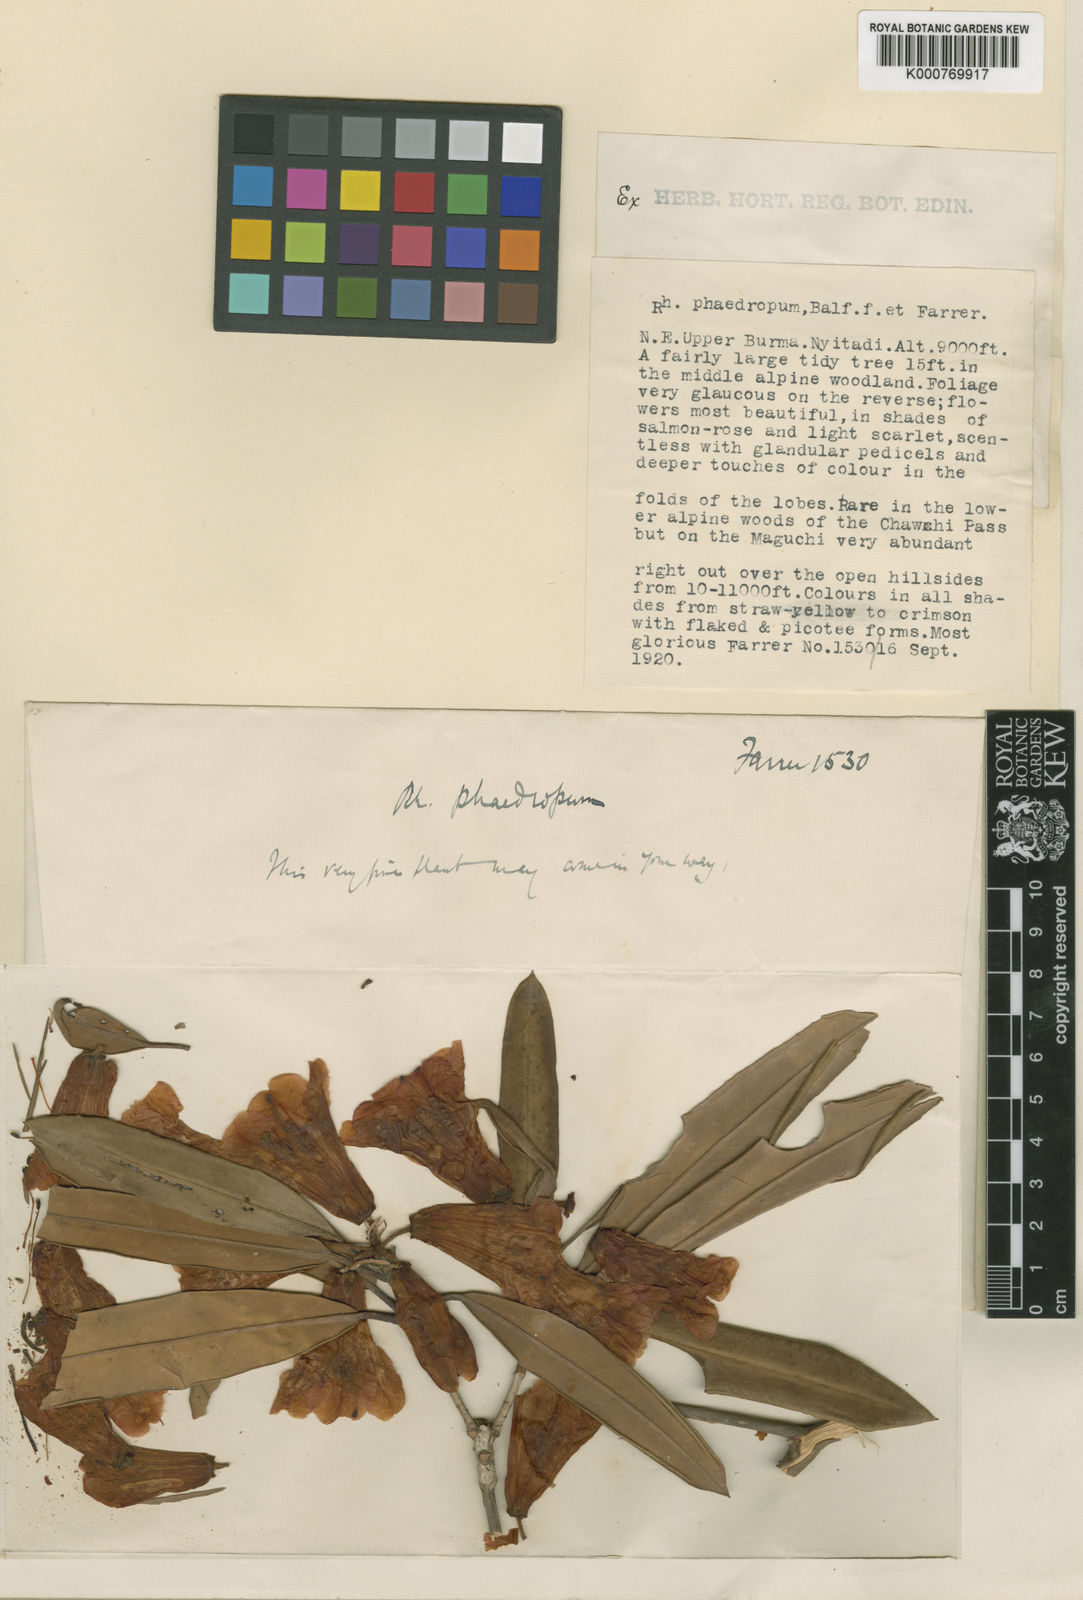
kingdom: Plantae
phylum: Tracheophyta
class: Magnoliopsida
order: Ericales
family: Ericaceae
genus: Rhododendron
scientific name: Rhododendron neriiflorum
